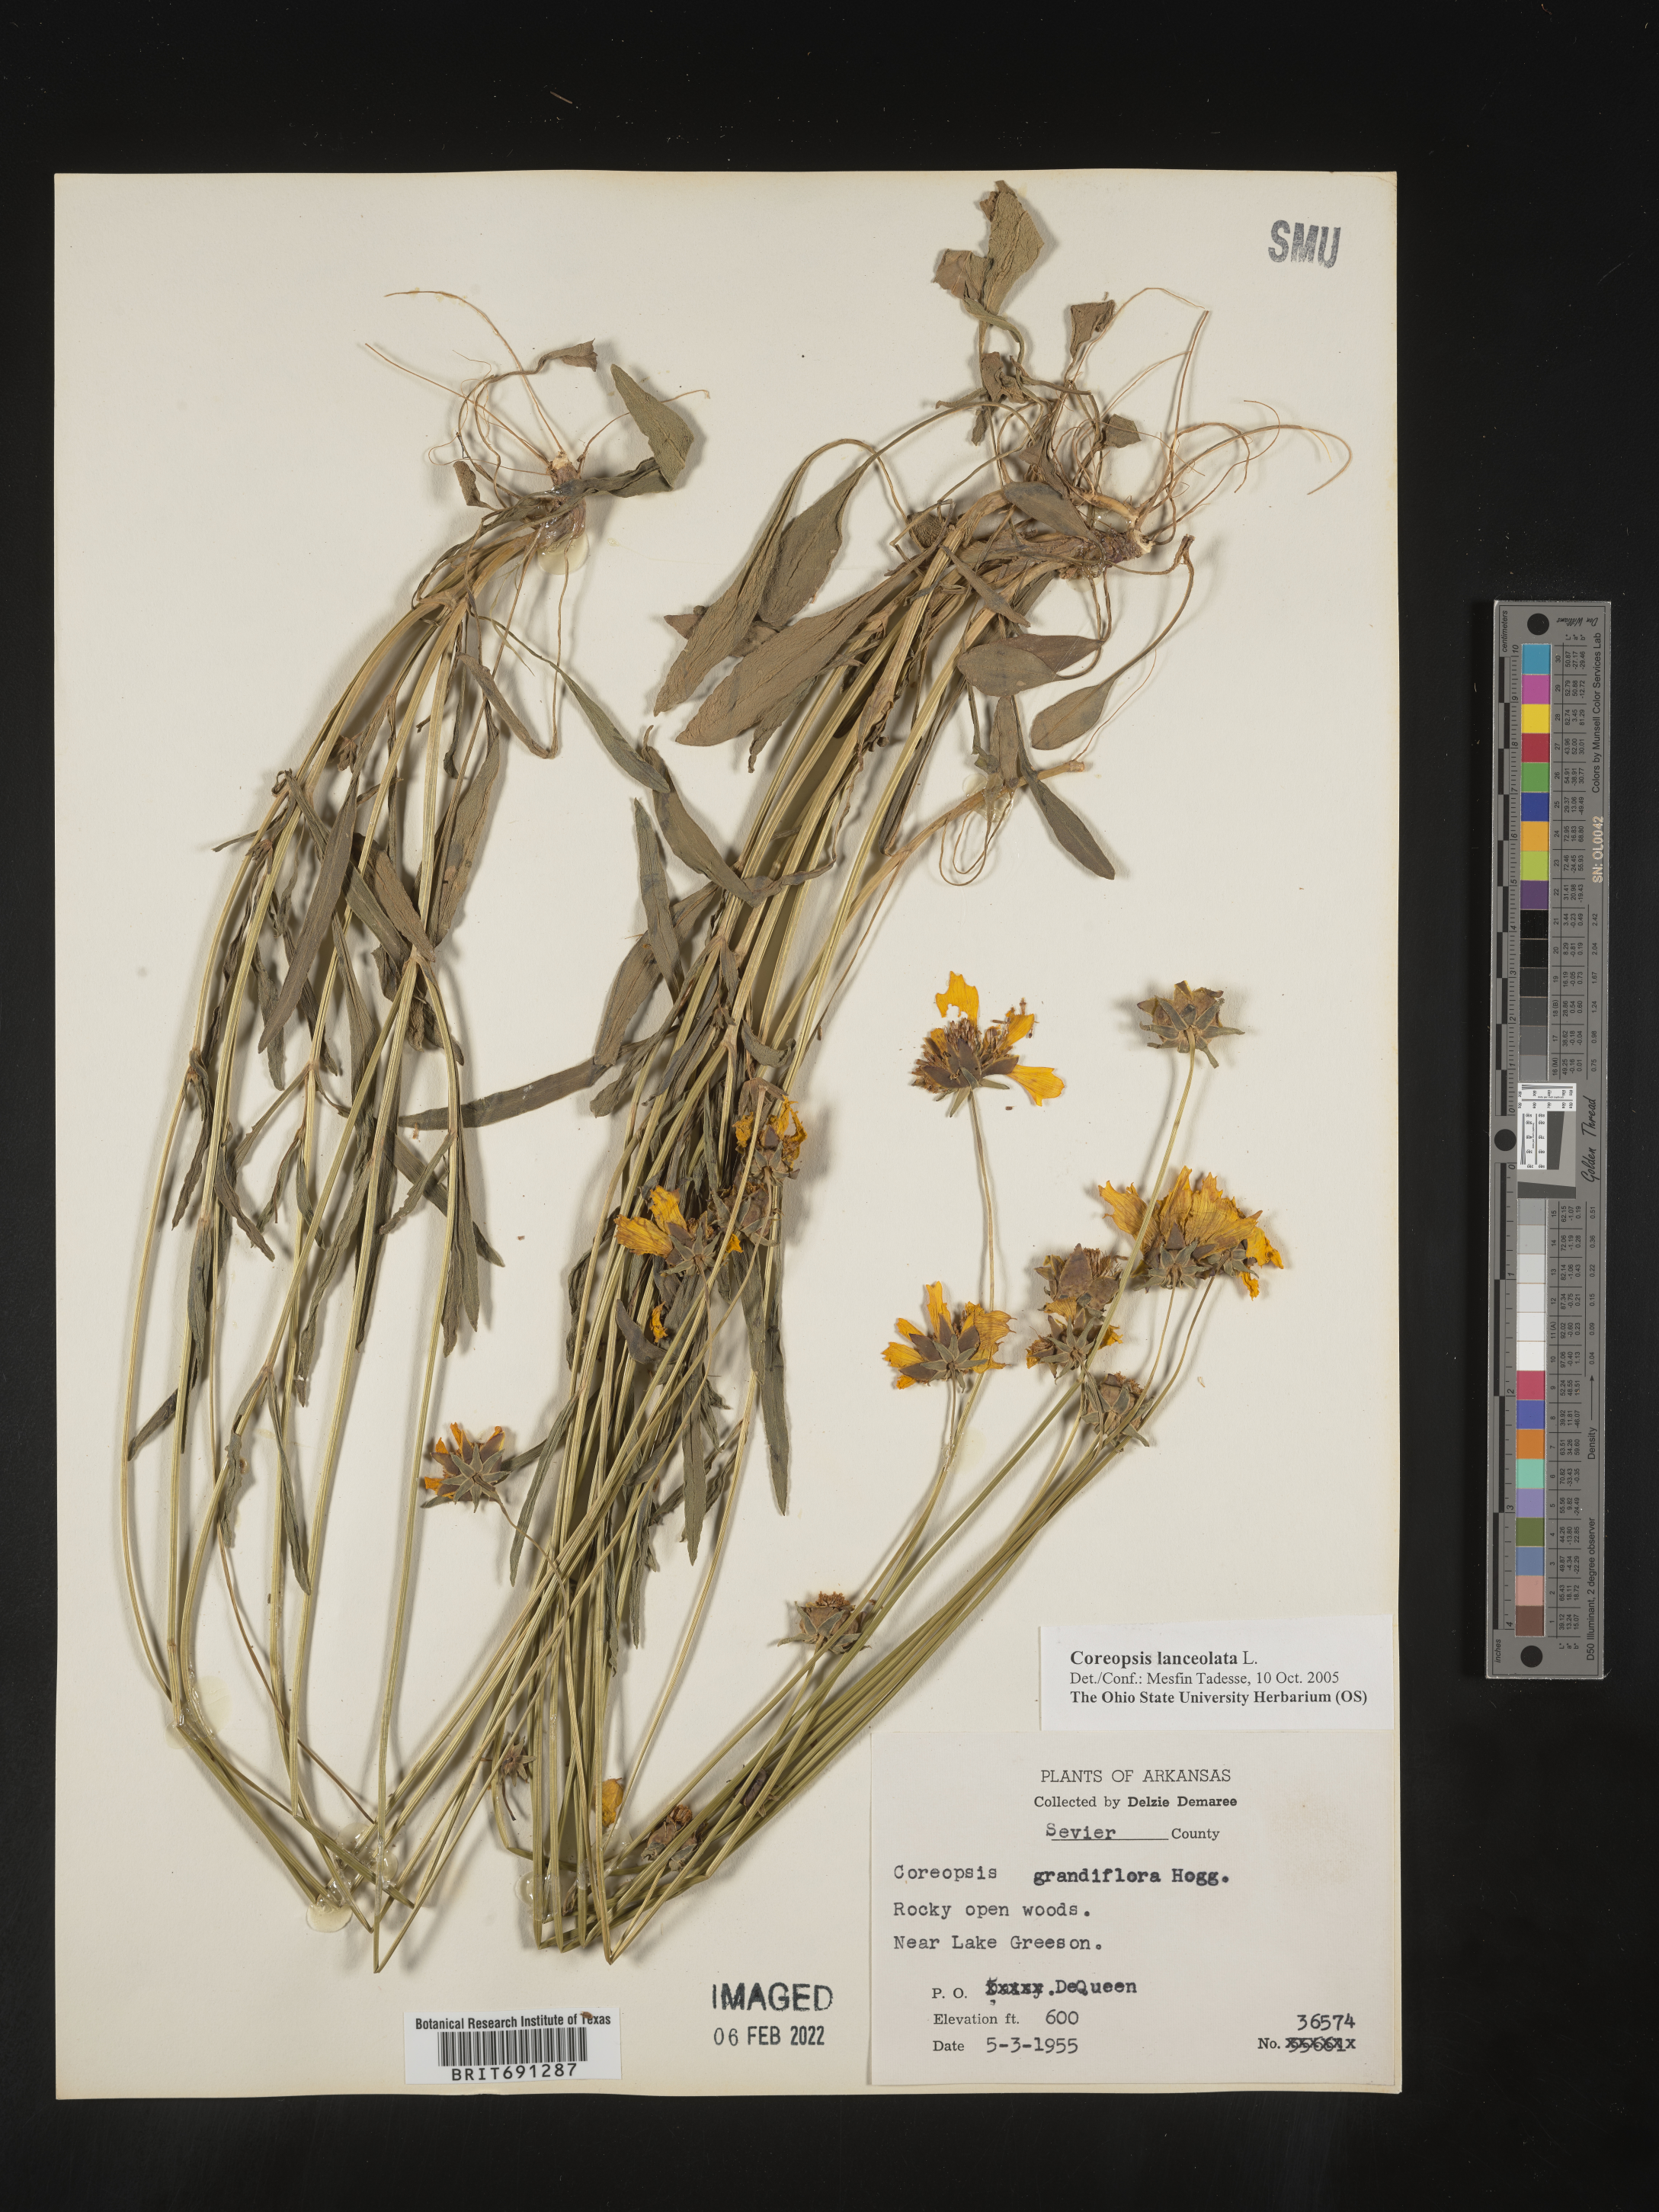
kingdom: Plantae
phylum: Tracheophyta
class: Magnoliopsida
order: Asterales
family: Asteraceae
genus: Coreopsis
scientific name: Coreopsis lanceolata
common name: Garden coreopsis
